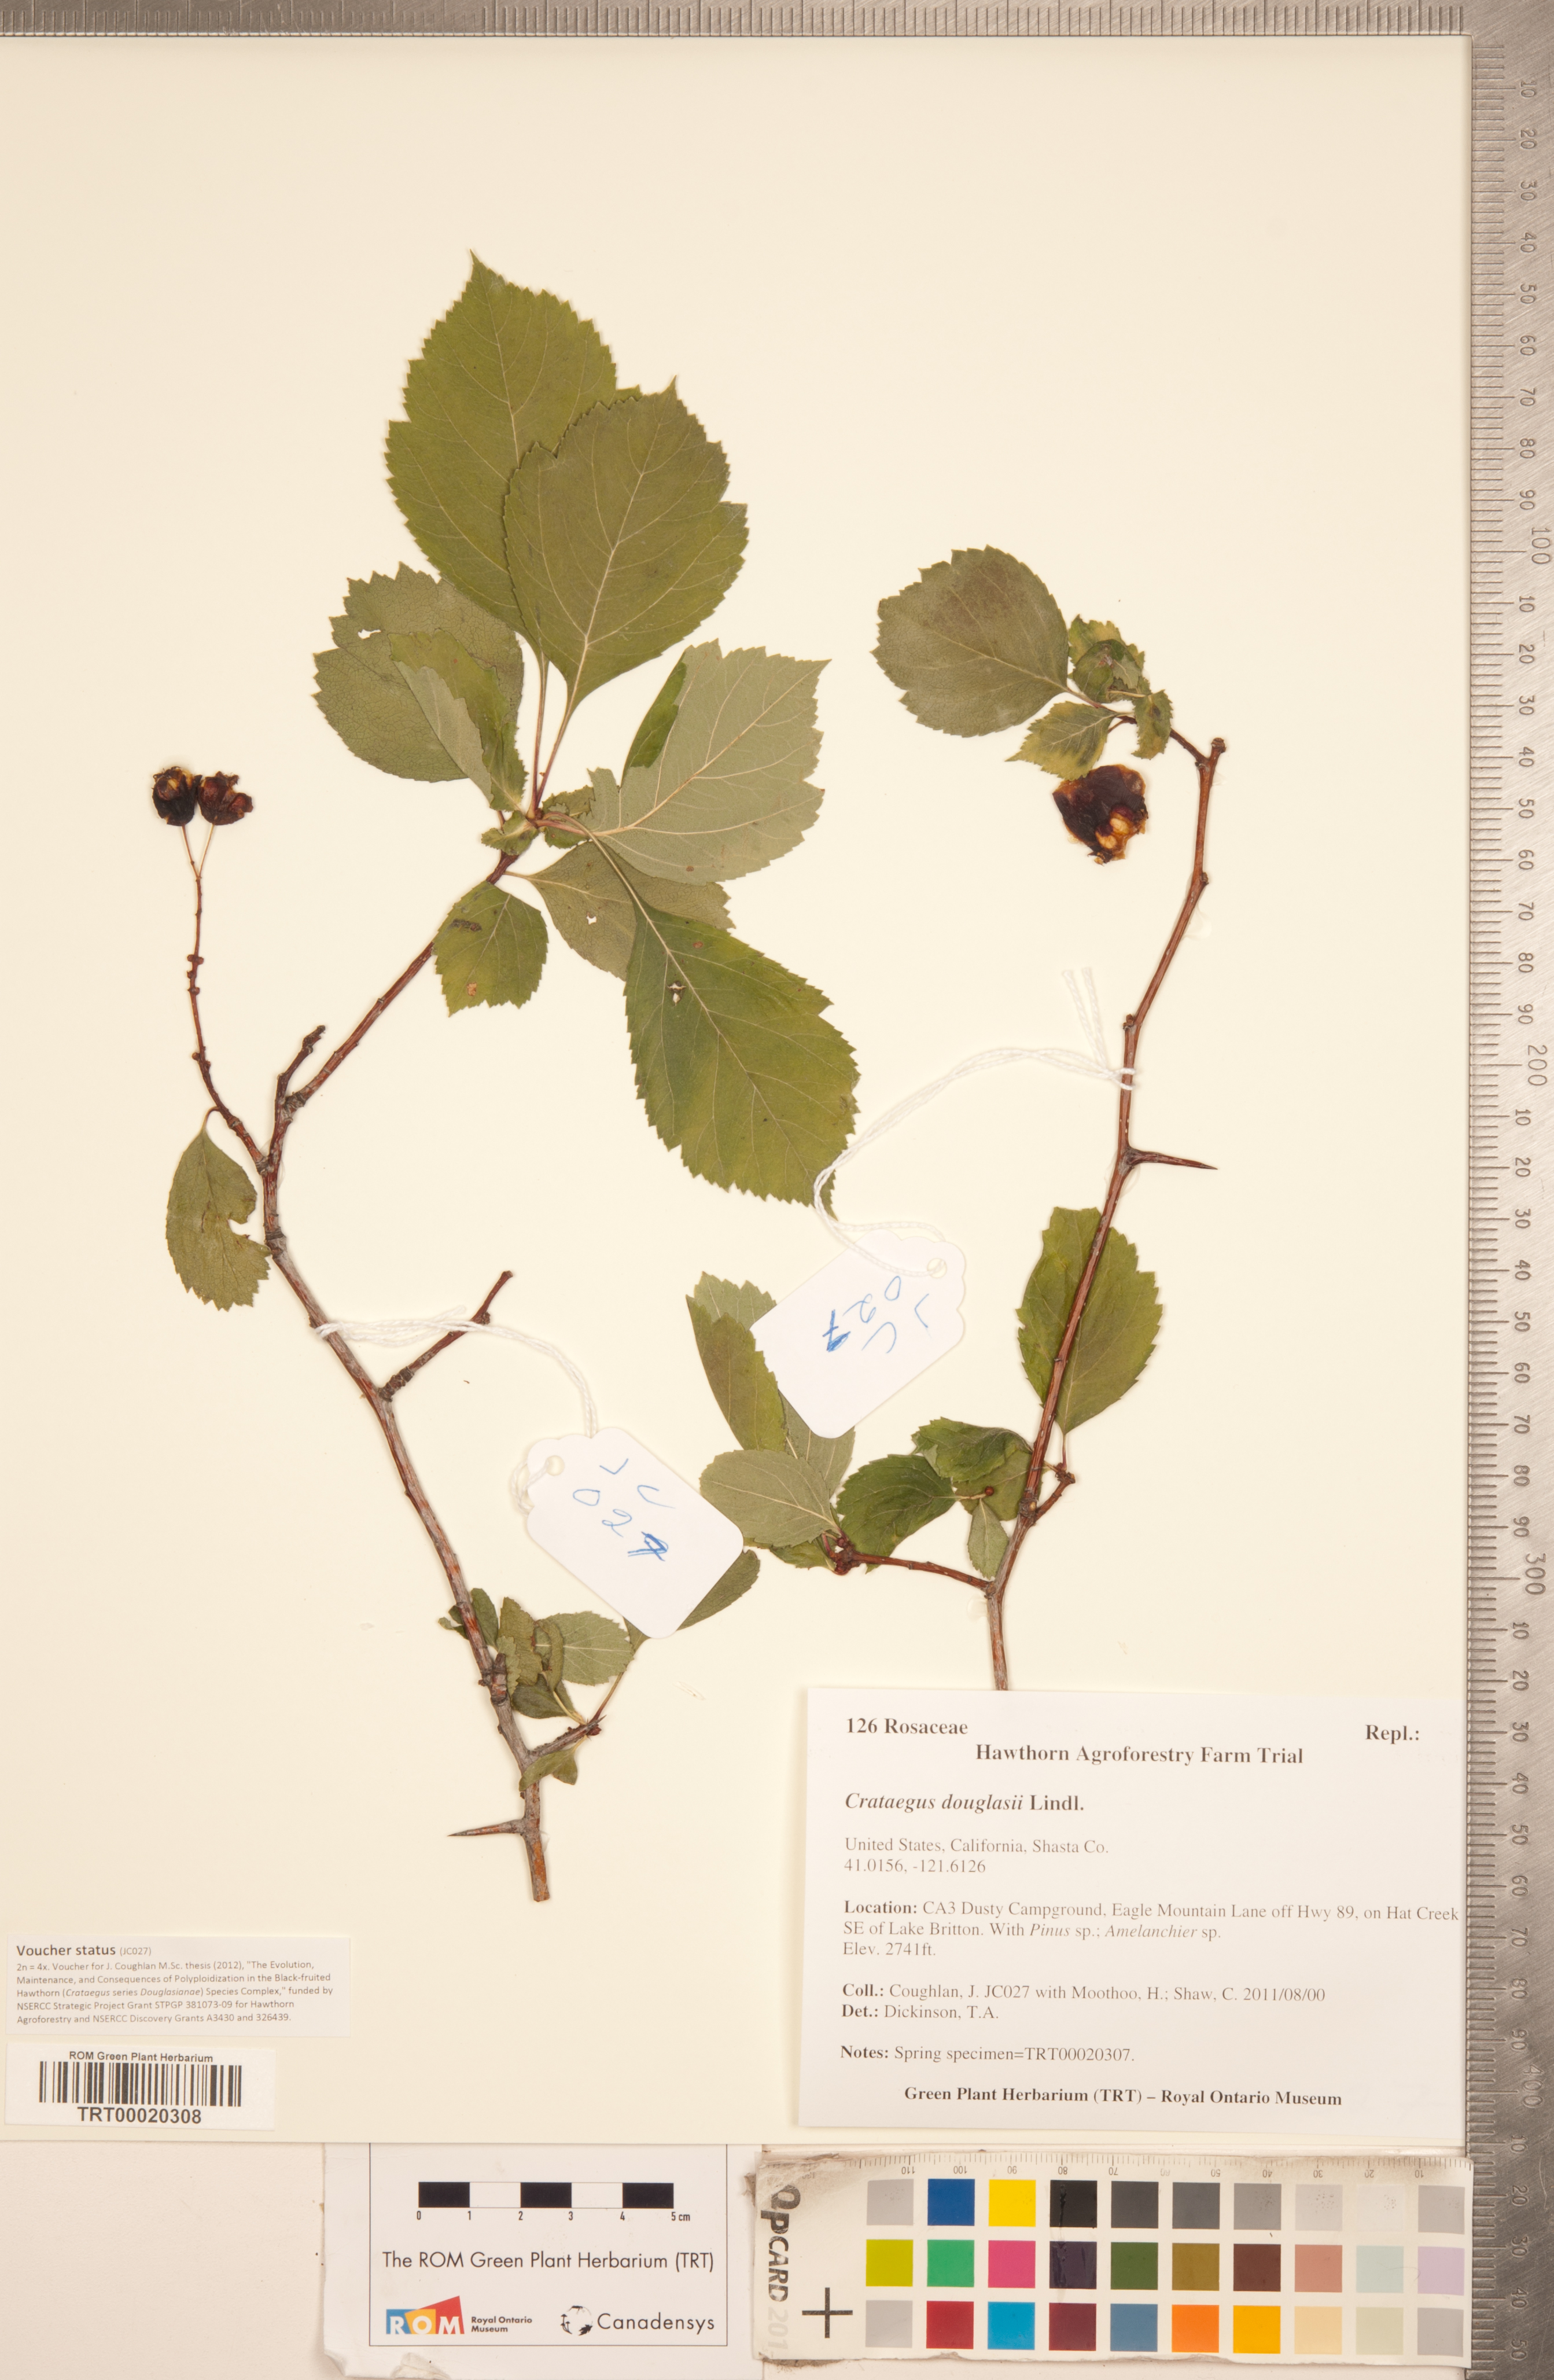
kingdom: Plantae
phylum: Tracheophyta
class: Magnoliopsida
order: Rosales
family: Rosaceae
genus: Crataegus
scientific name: Crataegus douglasii
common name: Black hawthorn
